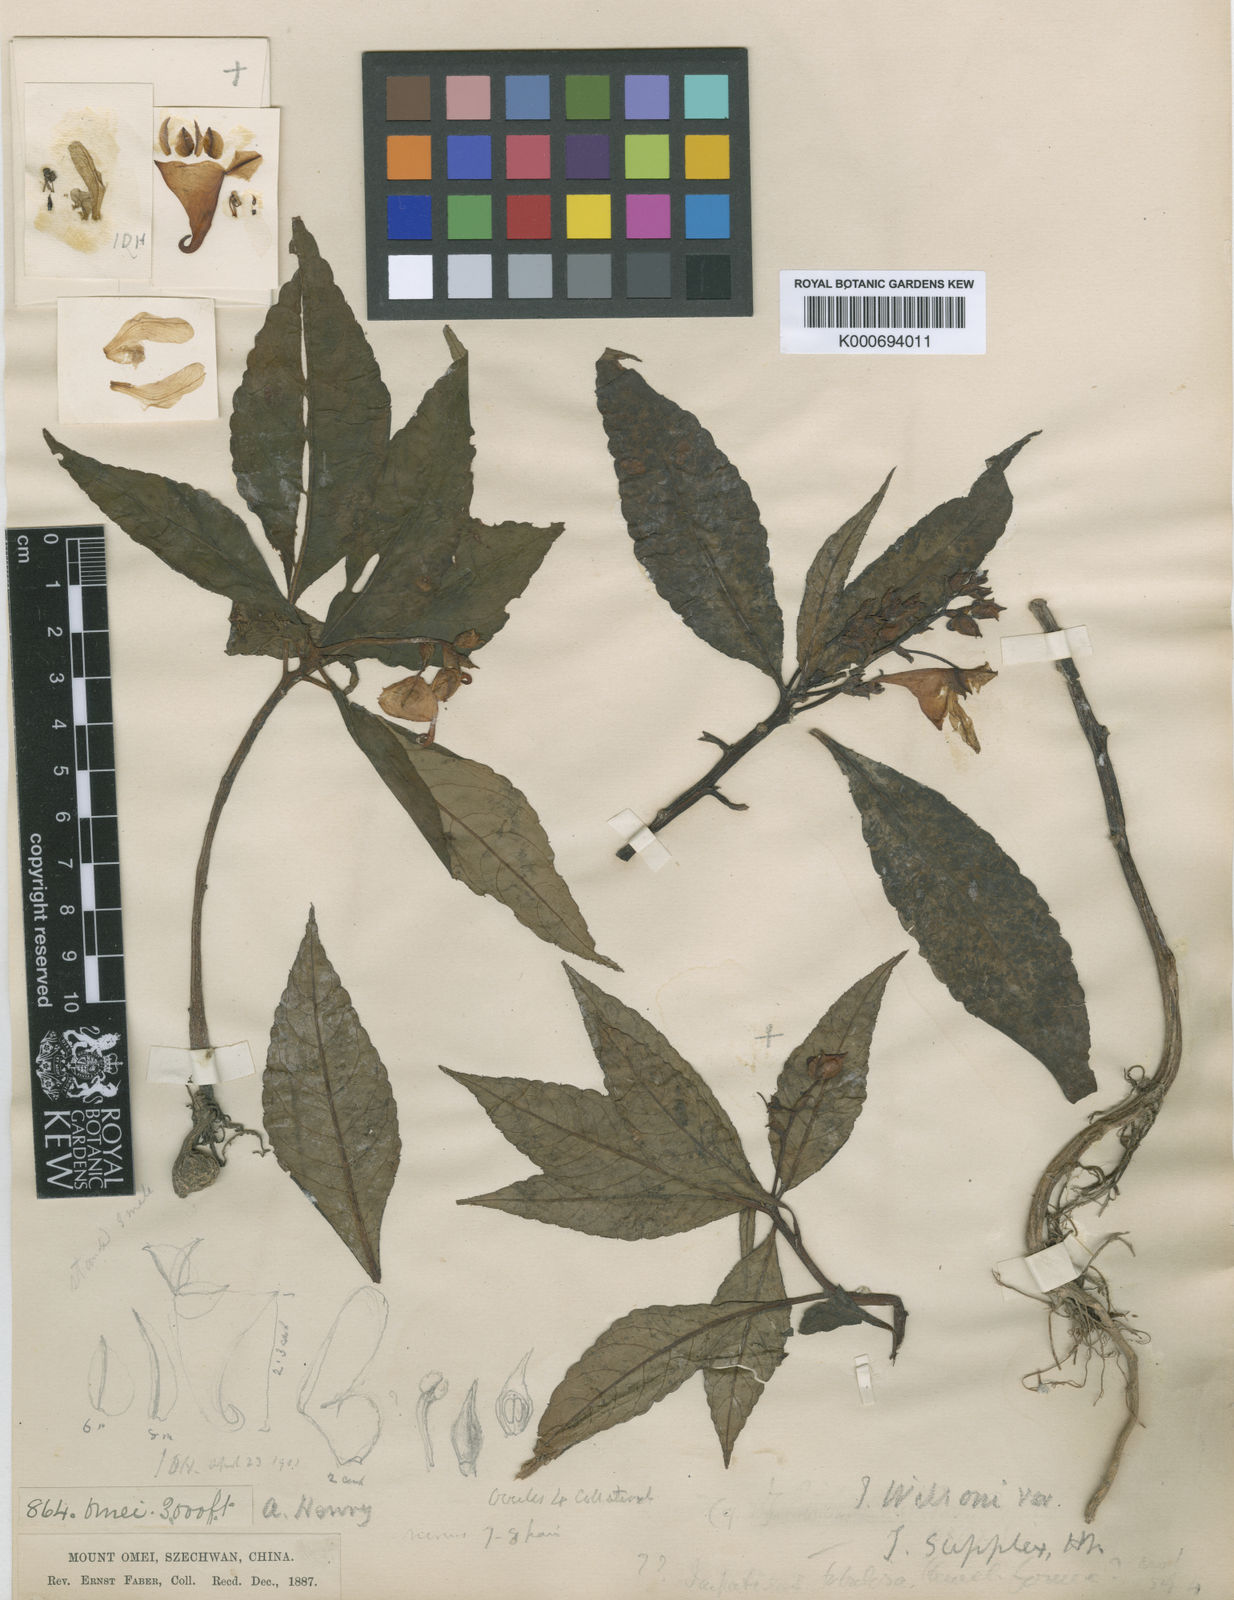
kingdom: Plantae
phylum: Tracheophyta
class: Magnoliopsida
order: Ericales
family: Balsaminaceae
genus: Impatiens
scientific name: Impatiens wilsonii
